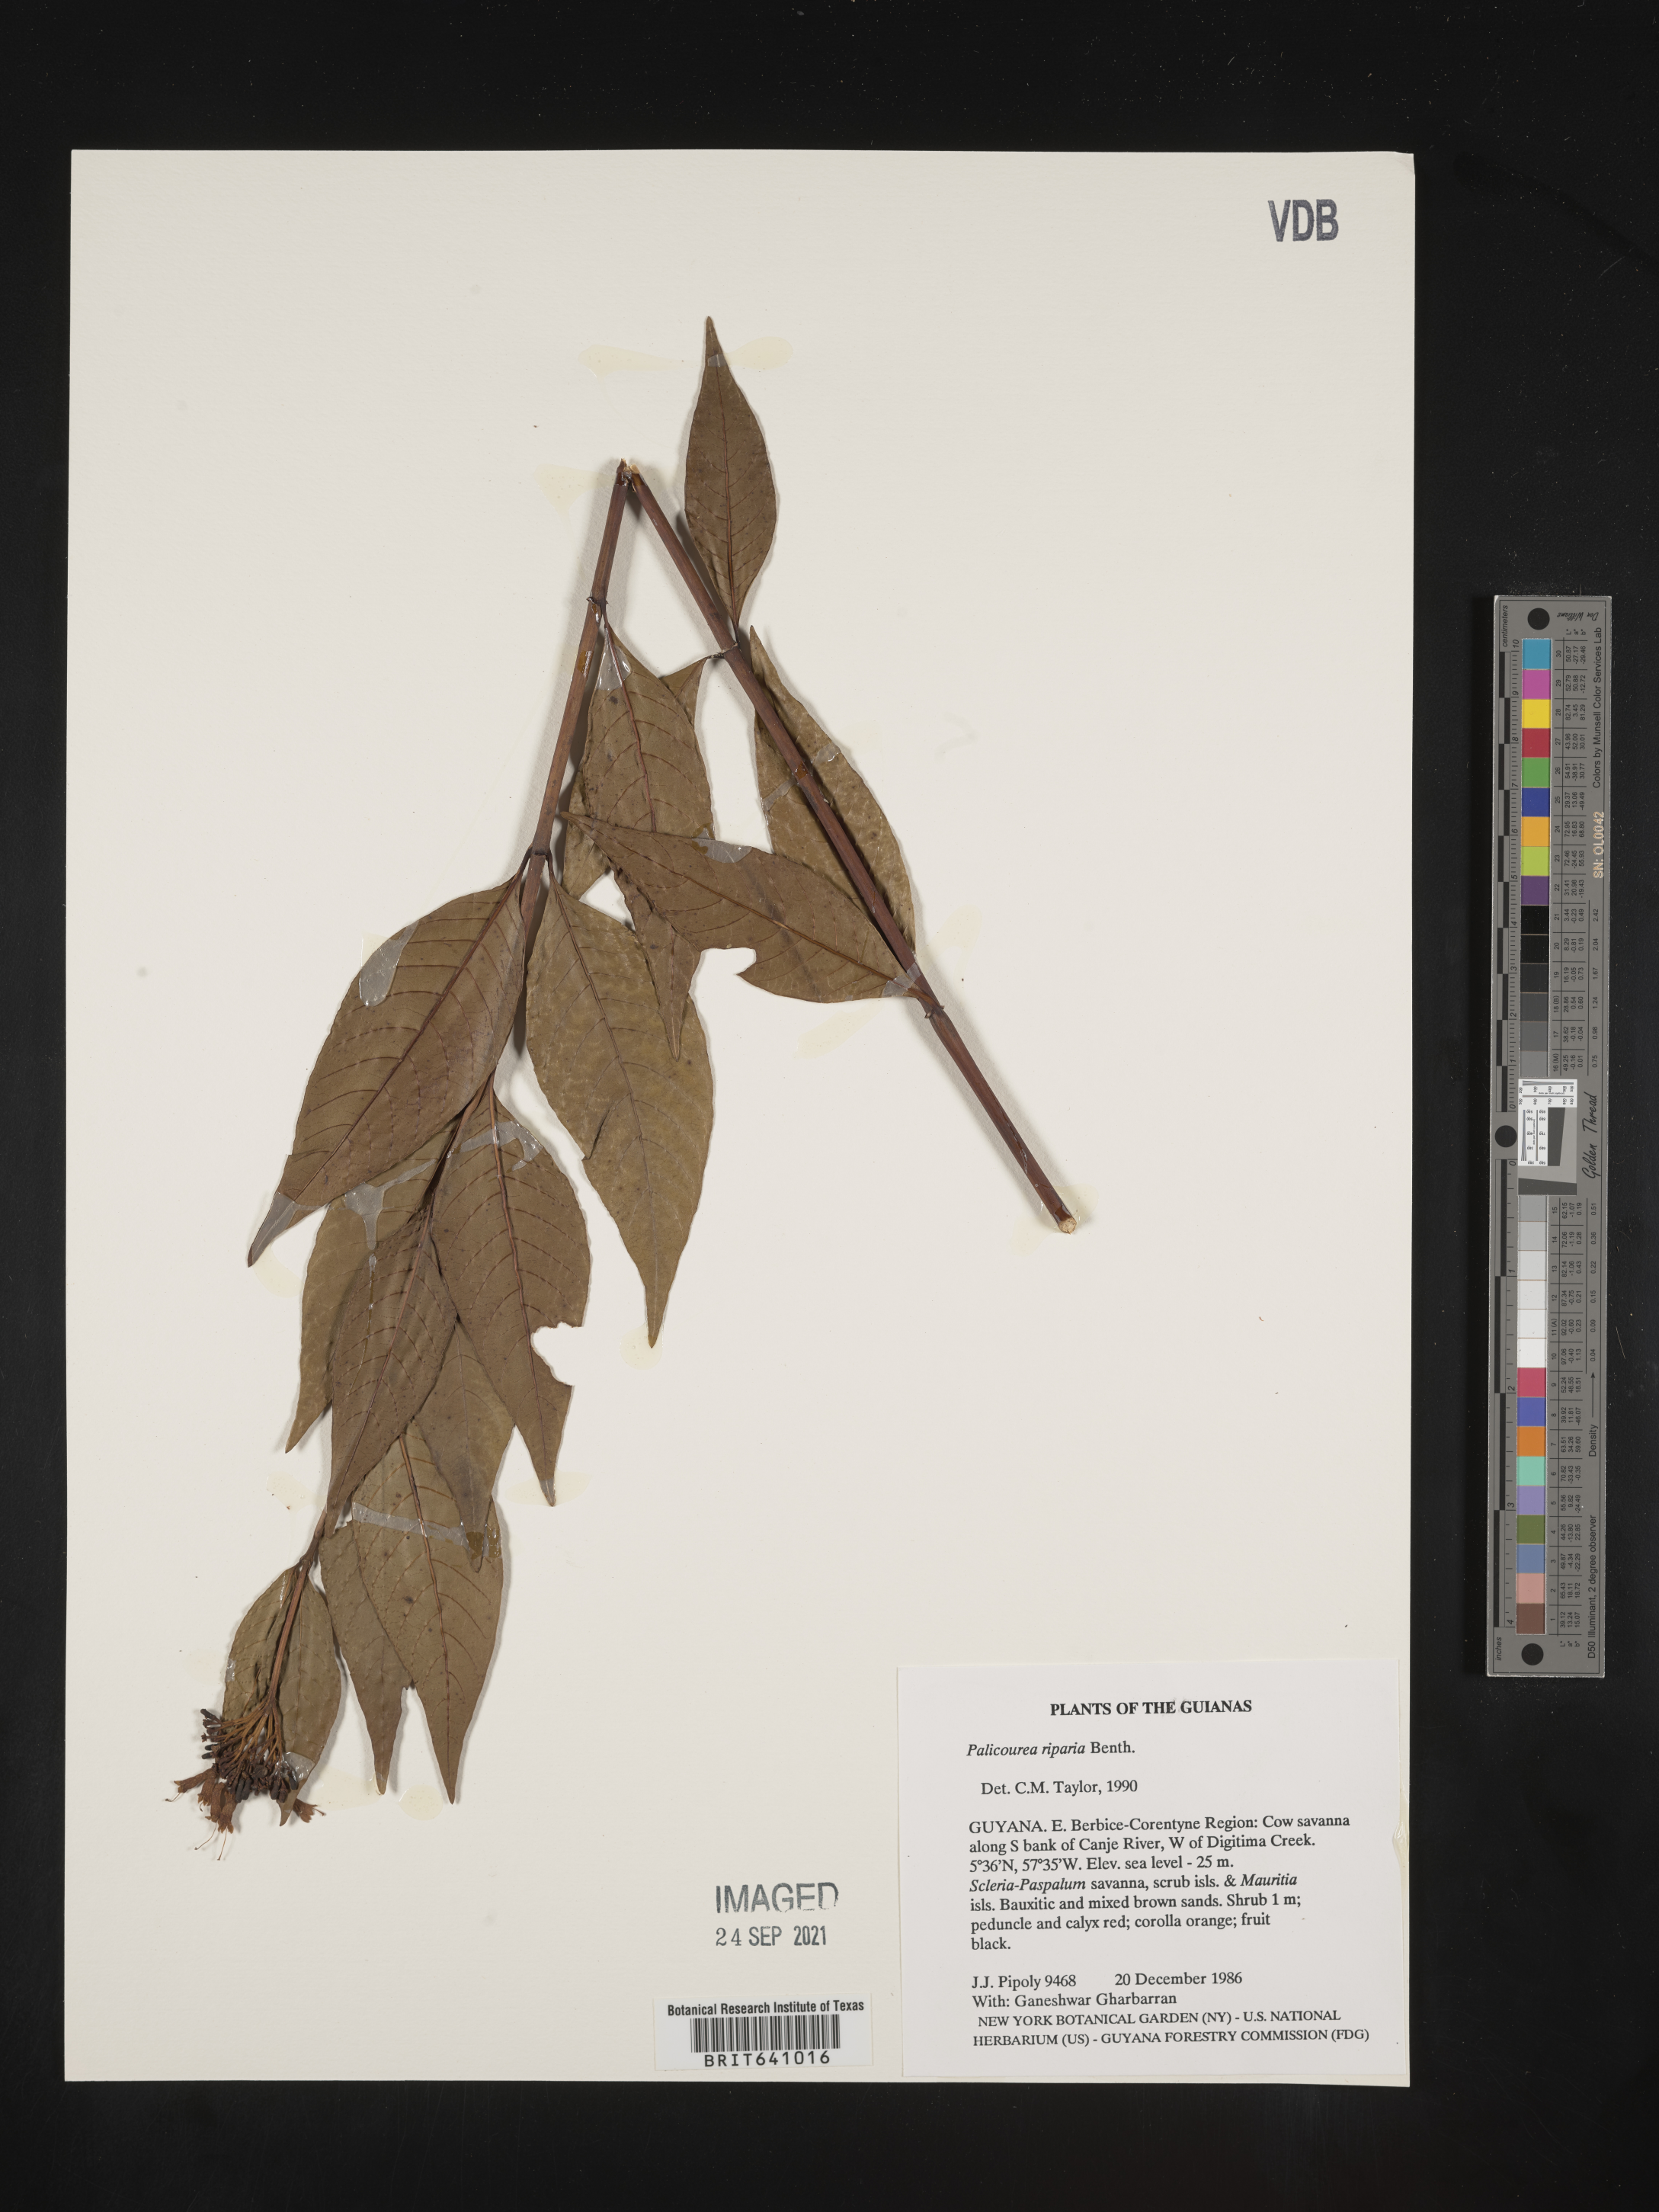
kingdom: Plantae
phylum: Tracheophyta
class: Magnoliopsida
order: Gentianales
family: Rubiaceae
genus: Palicourea
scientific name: Palicourea
